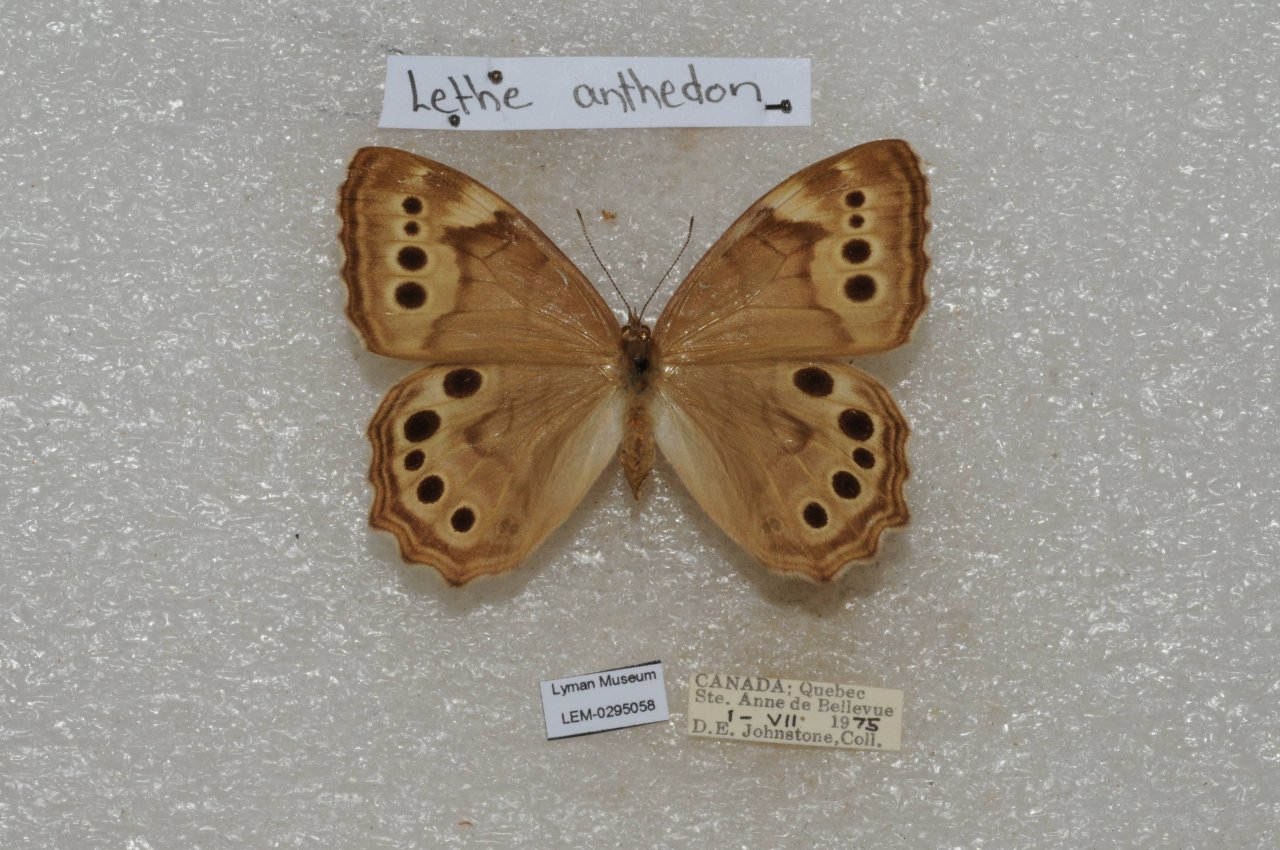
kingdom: Animalia
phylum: Arthropoda
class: Insecta
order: Lepidoptera
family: Nymphalidae
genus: Lethe
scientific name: Lethe anthedon
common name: Northern Pearly-Eye
